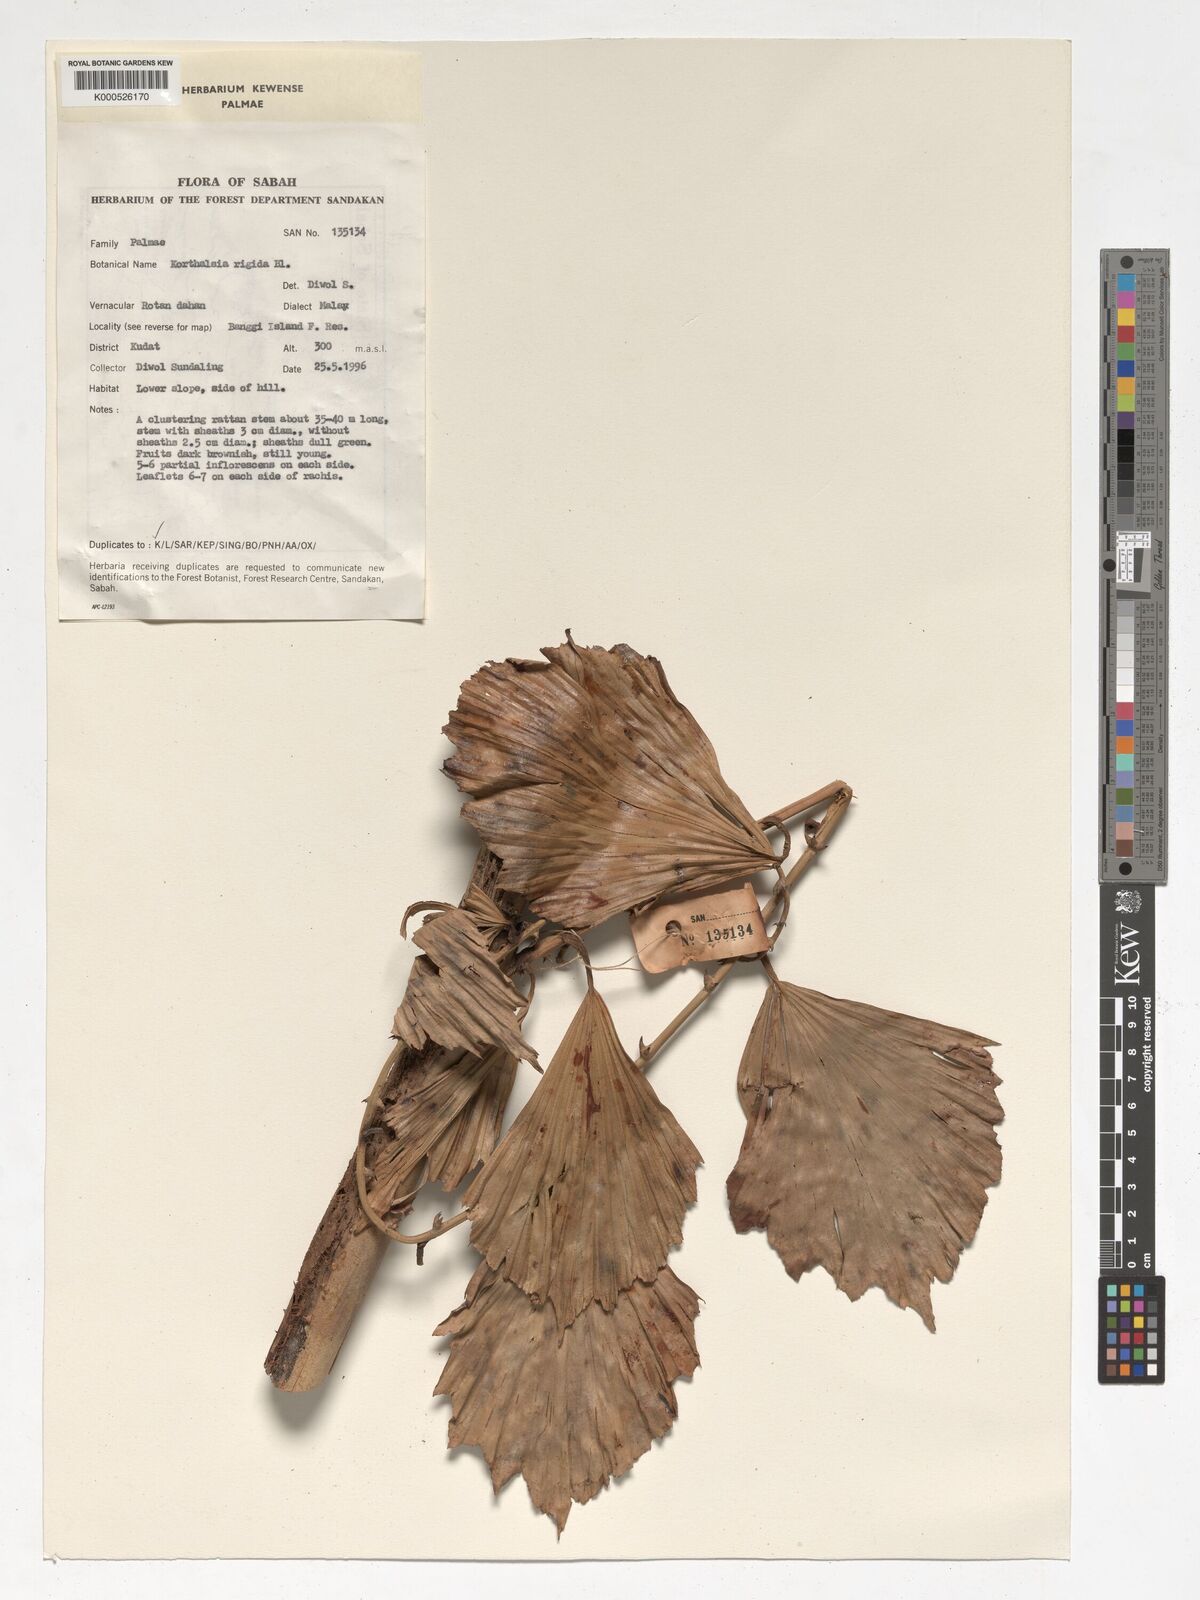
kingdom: Plantae
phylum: Tracheophyta
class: Liliopsida
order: Arecales
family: Arecaceae
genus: Korthalsia
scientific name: Korthalsia rigida
